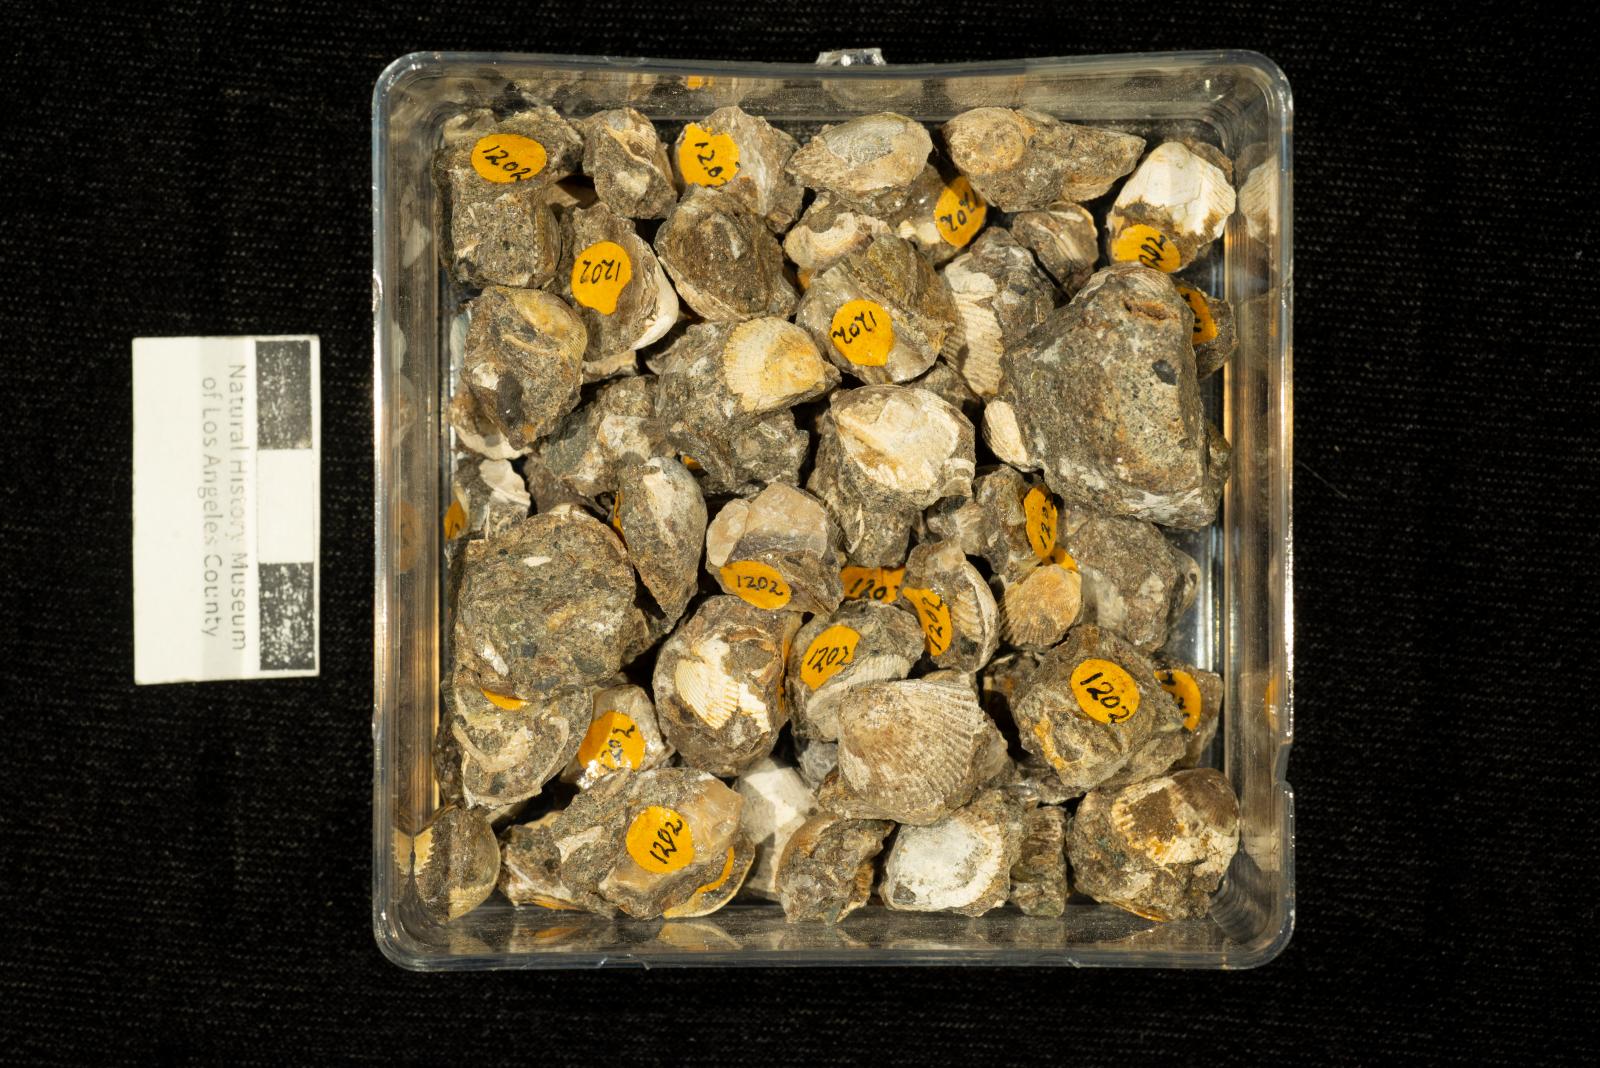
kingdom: Animalia
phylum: Mollusca
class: Bivalvia
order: Cardiida
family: Cardiidae
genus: Americardia
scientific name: Americardia
